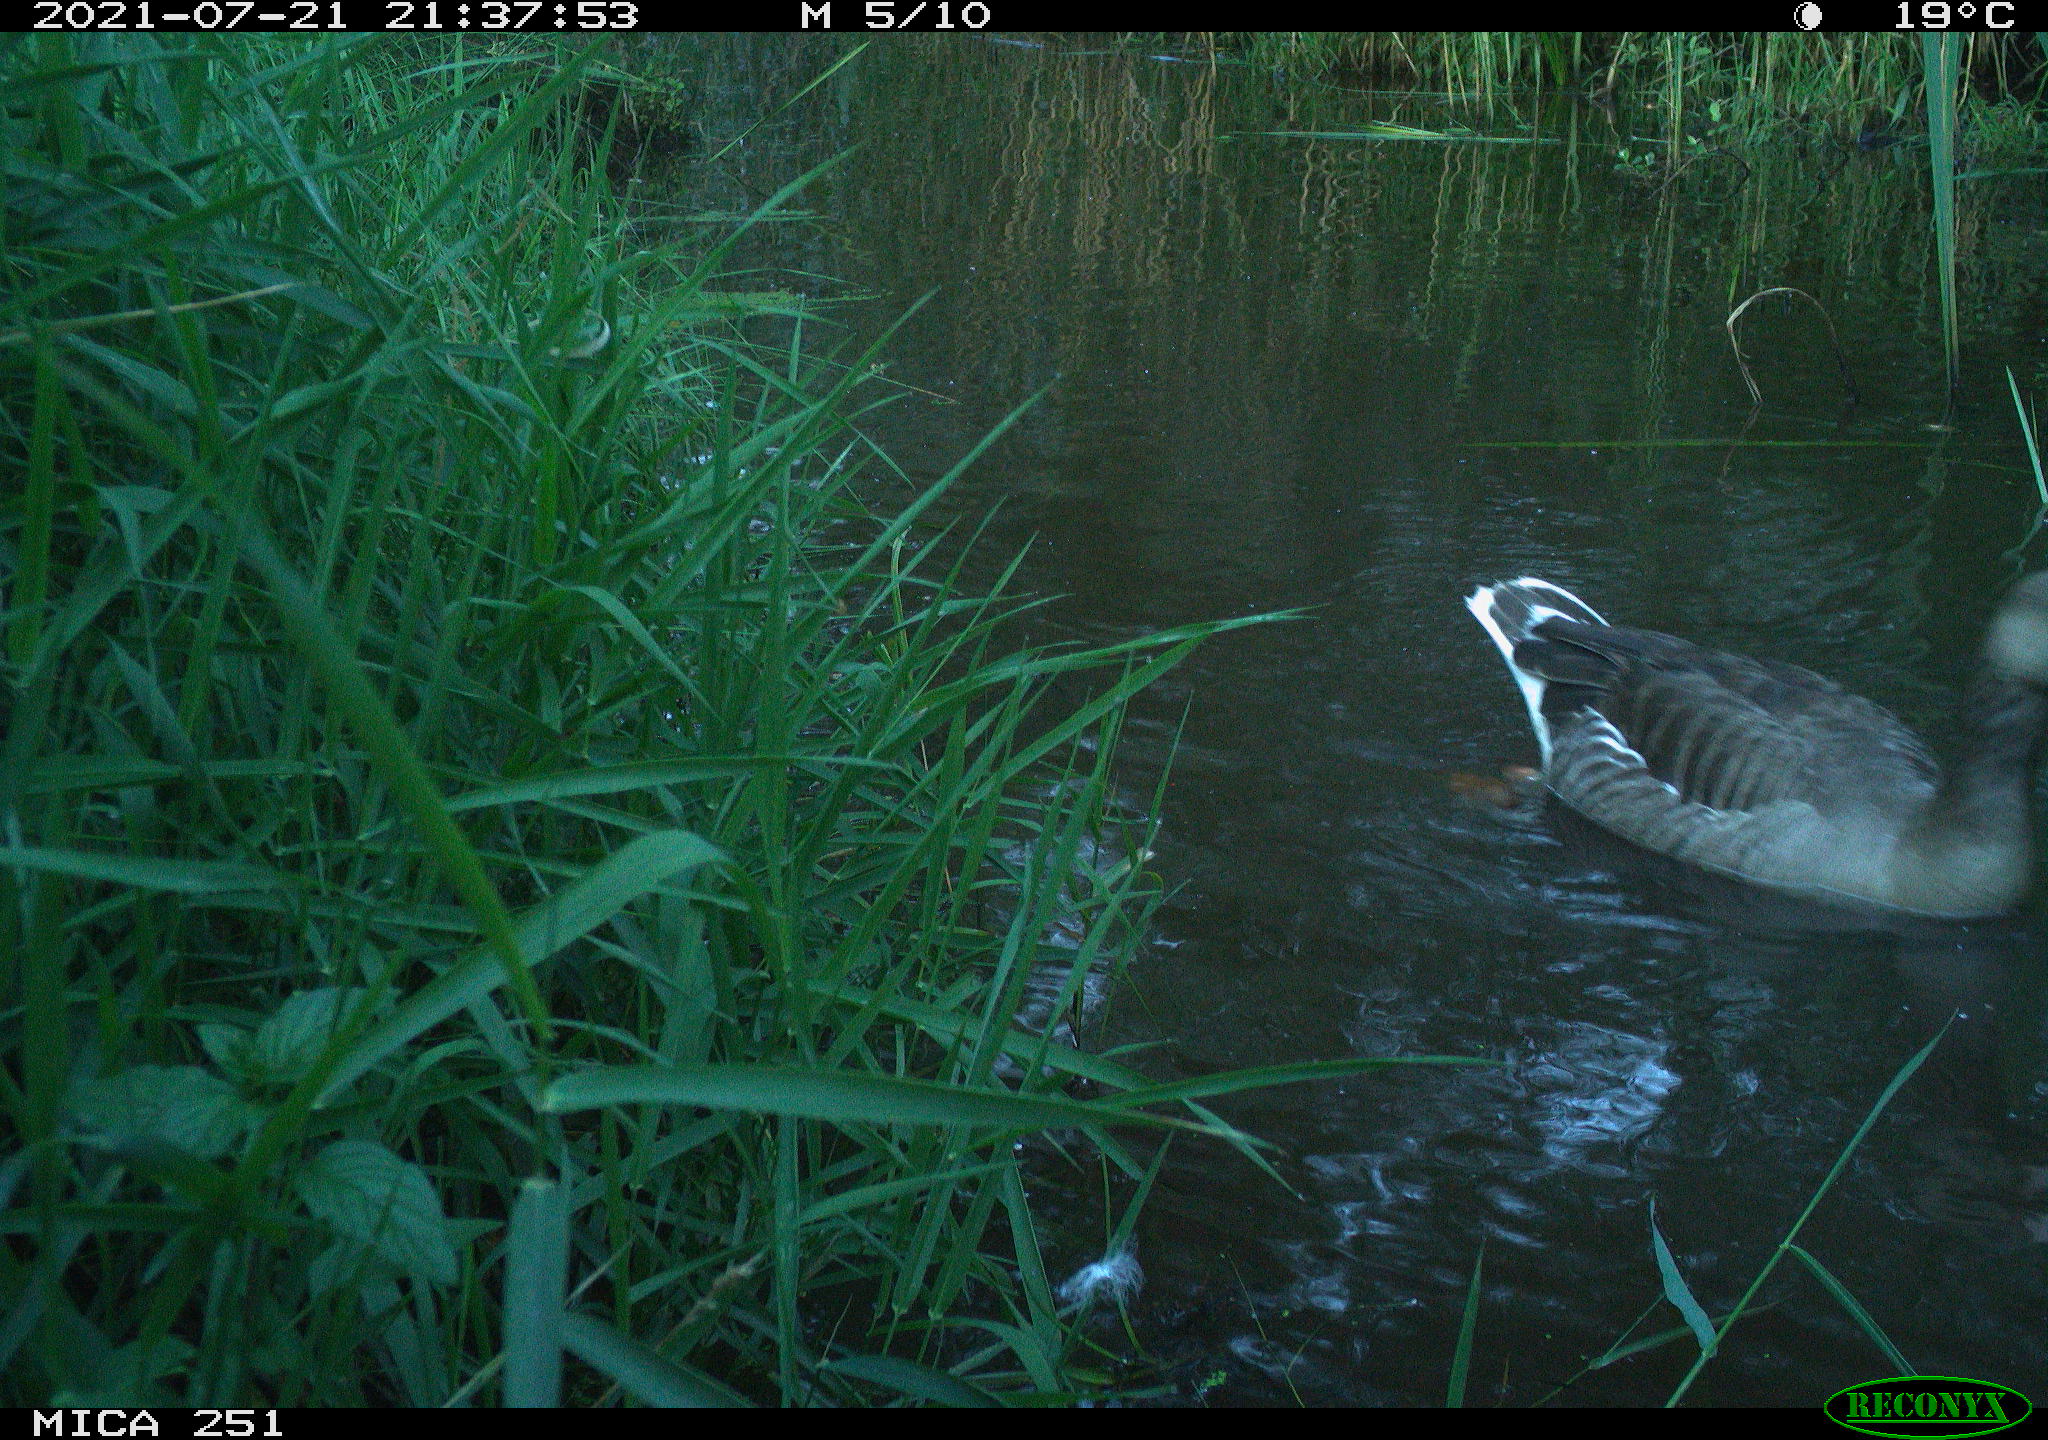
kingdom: Animalia
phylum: Chordata
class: Aves
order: Anseriformes
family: Anatidae
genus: Anser
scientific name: Anser anser
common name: Greylag goose
